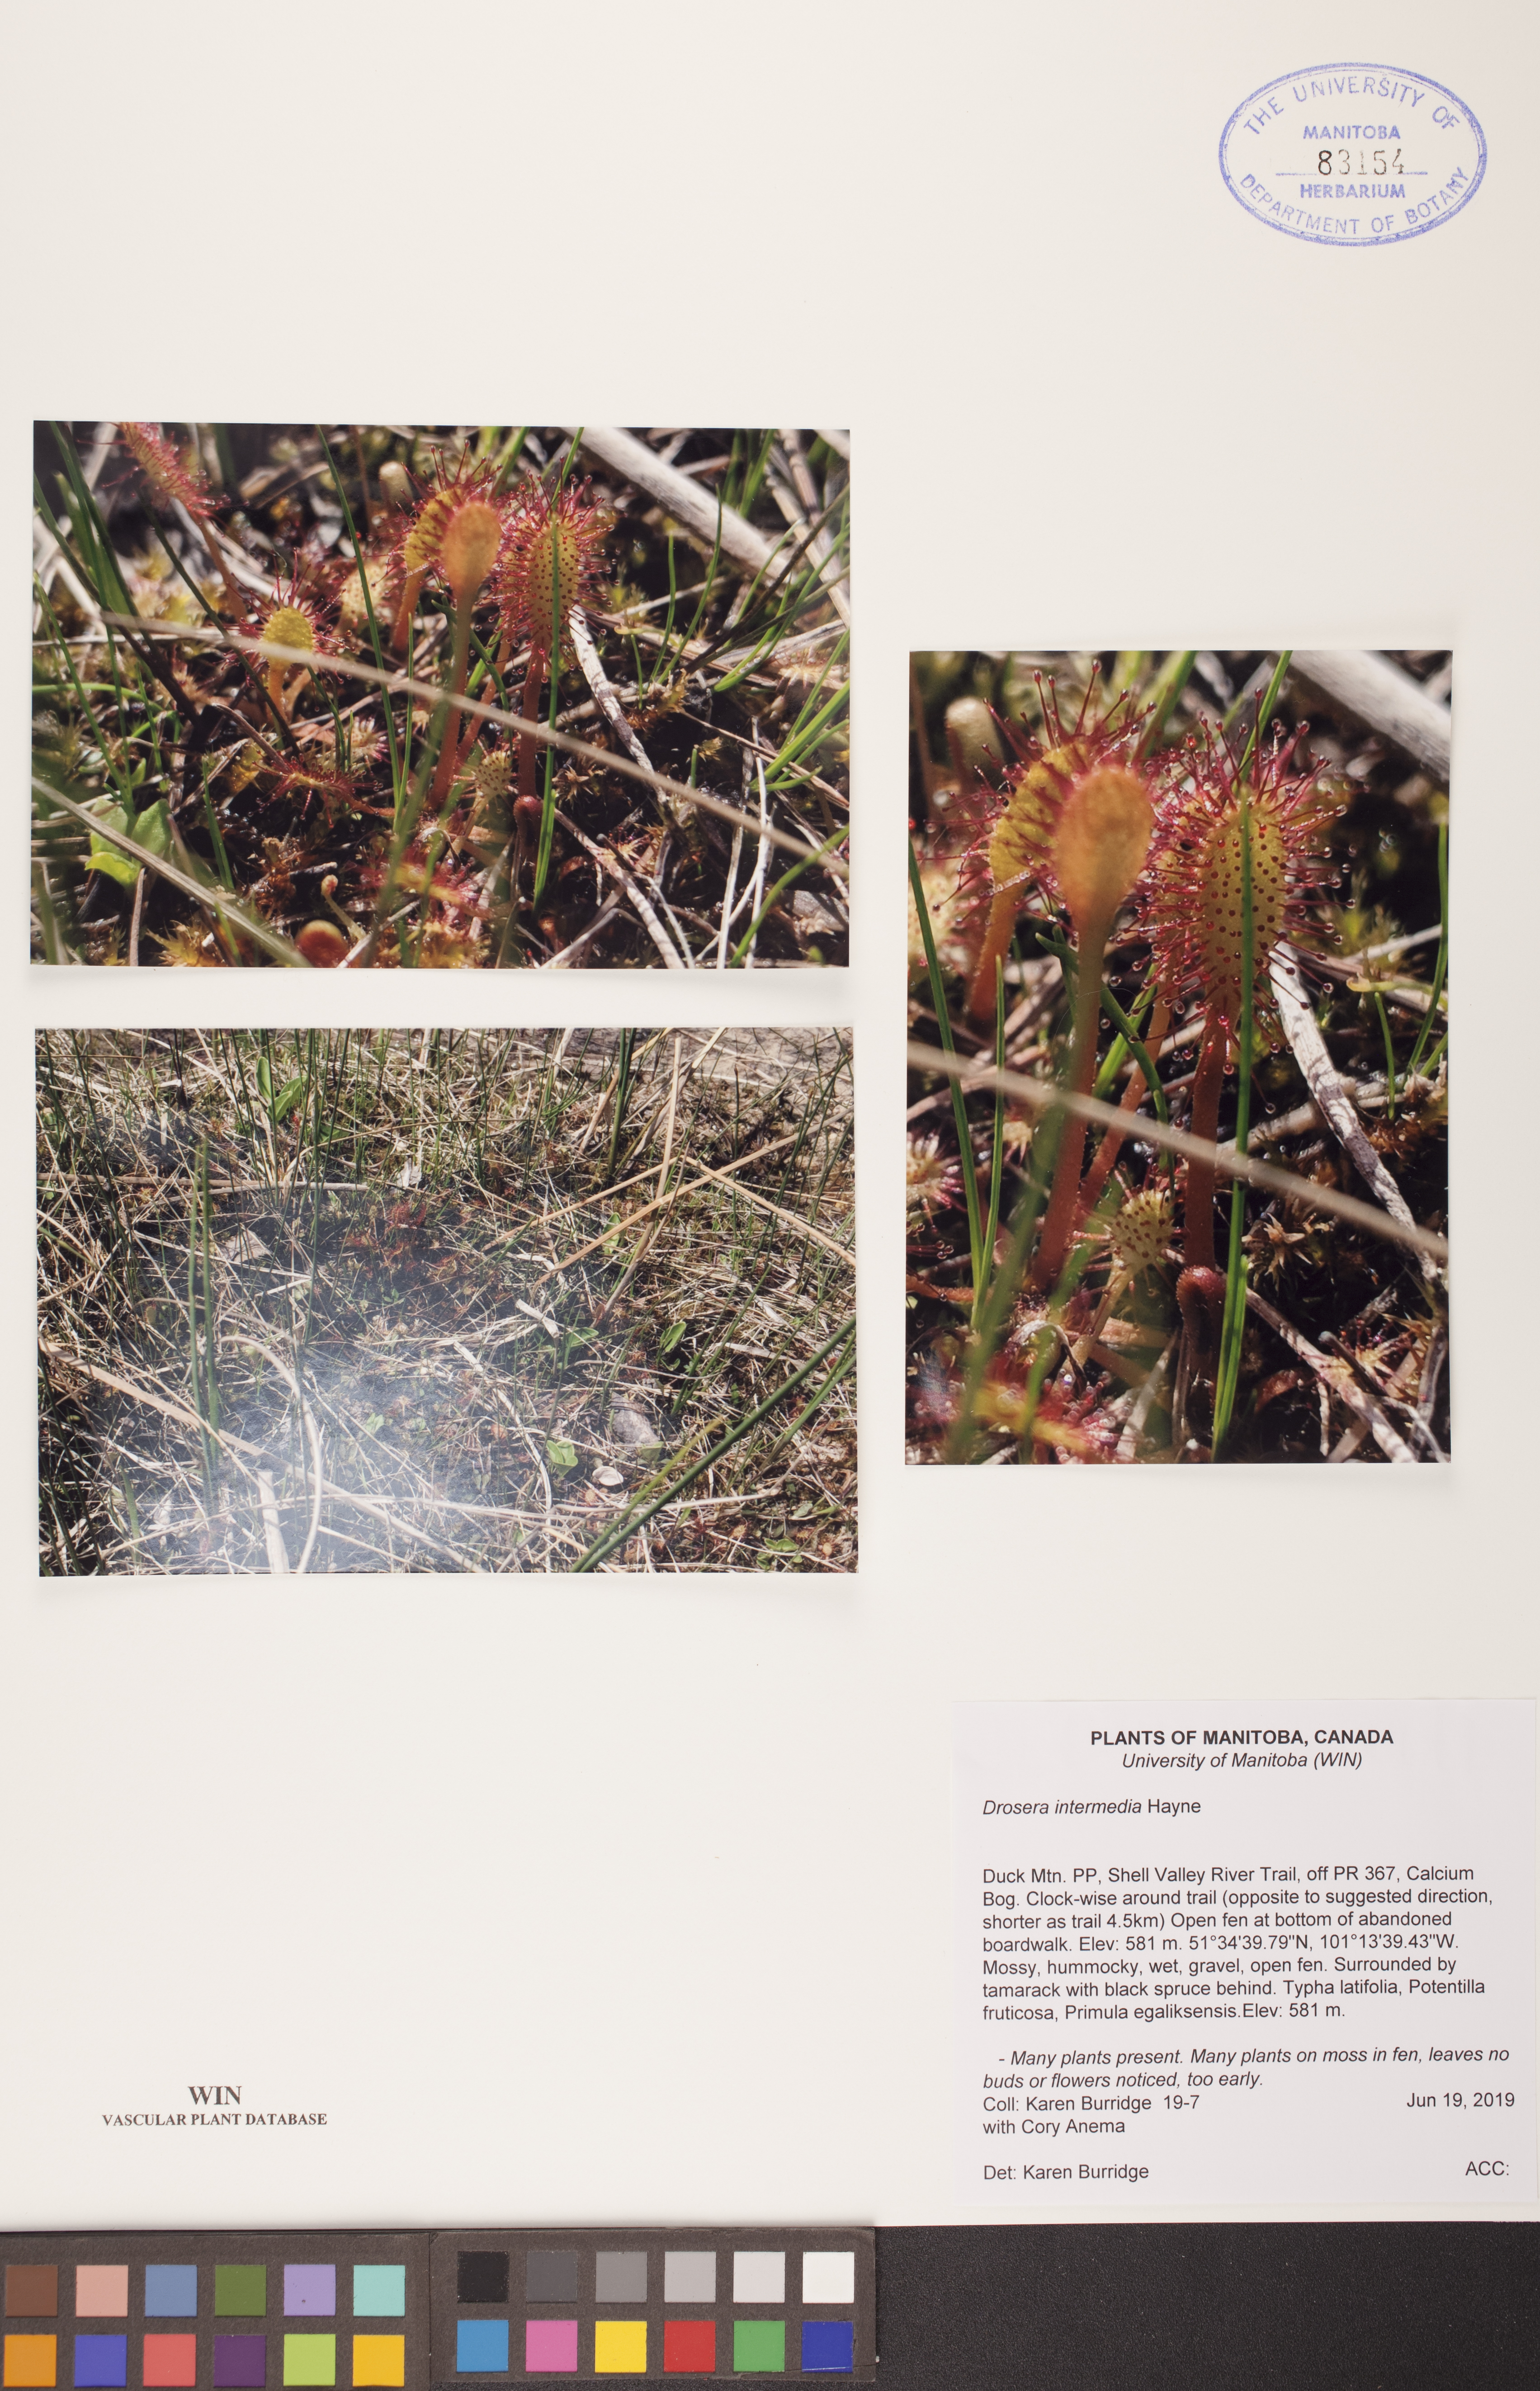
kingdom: Plantae
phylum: Tracheophyta
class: Magnoliopsida
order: Caryophyllales
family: Droseraceae
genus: Drosera
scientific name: Drosera intermedia
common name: Oblong-leaved sundew
